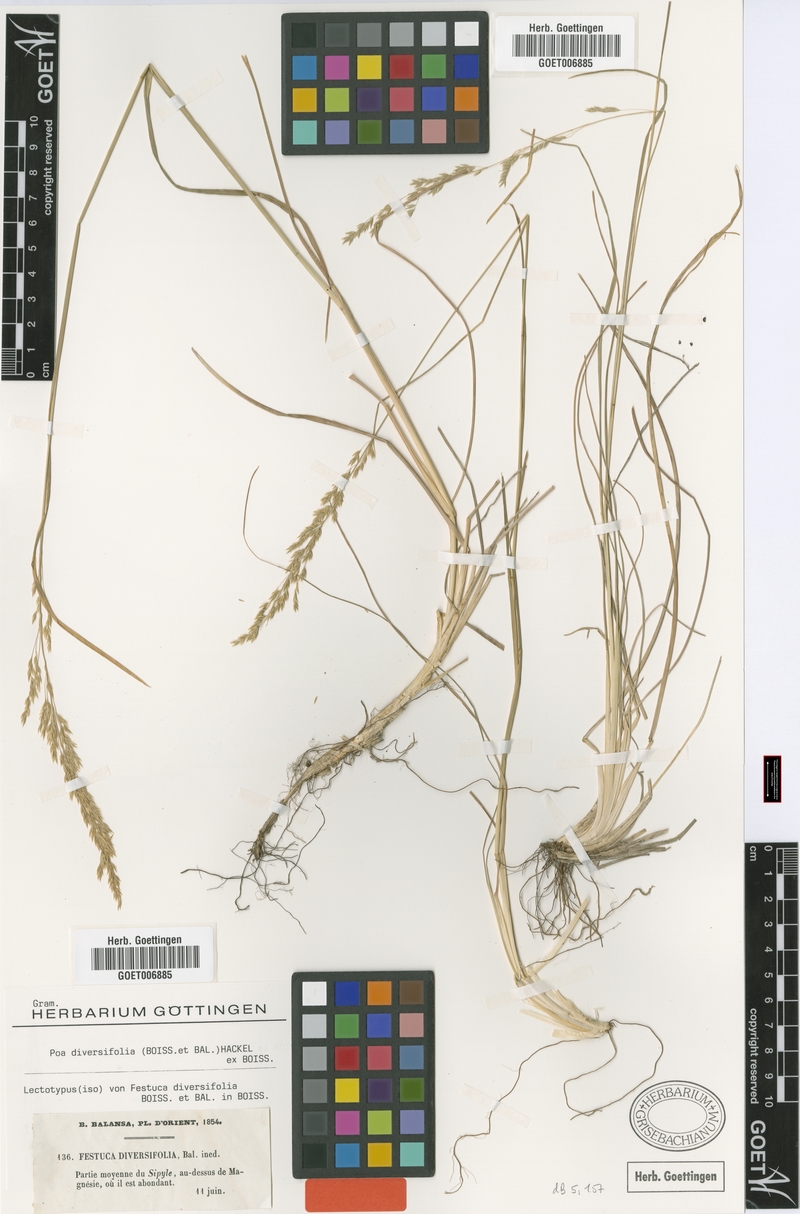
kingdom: Plantae
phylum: Tracheophyta
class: Liliopsida
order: Poales
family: Poaceae
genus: Poa
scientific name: Poa diversifolia
